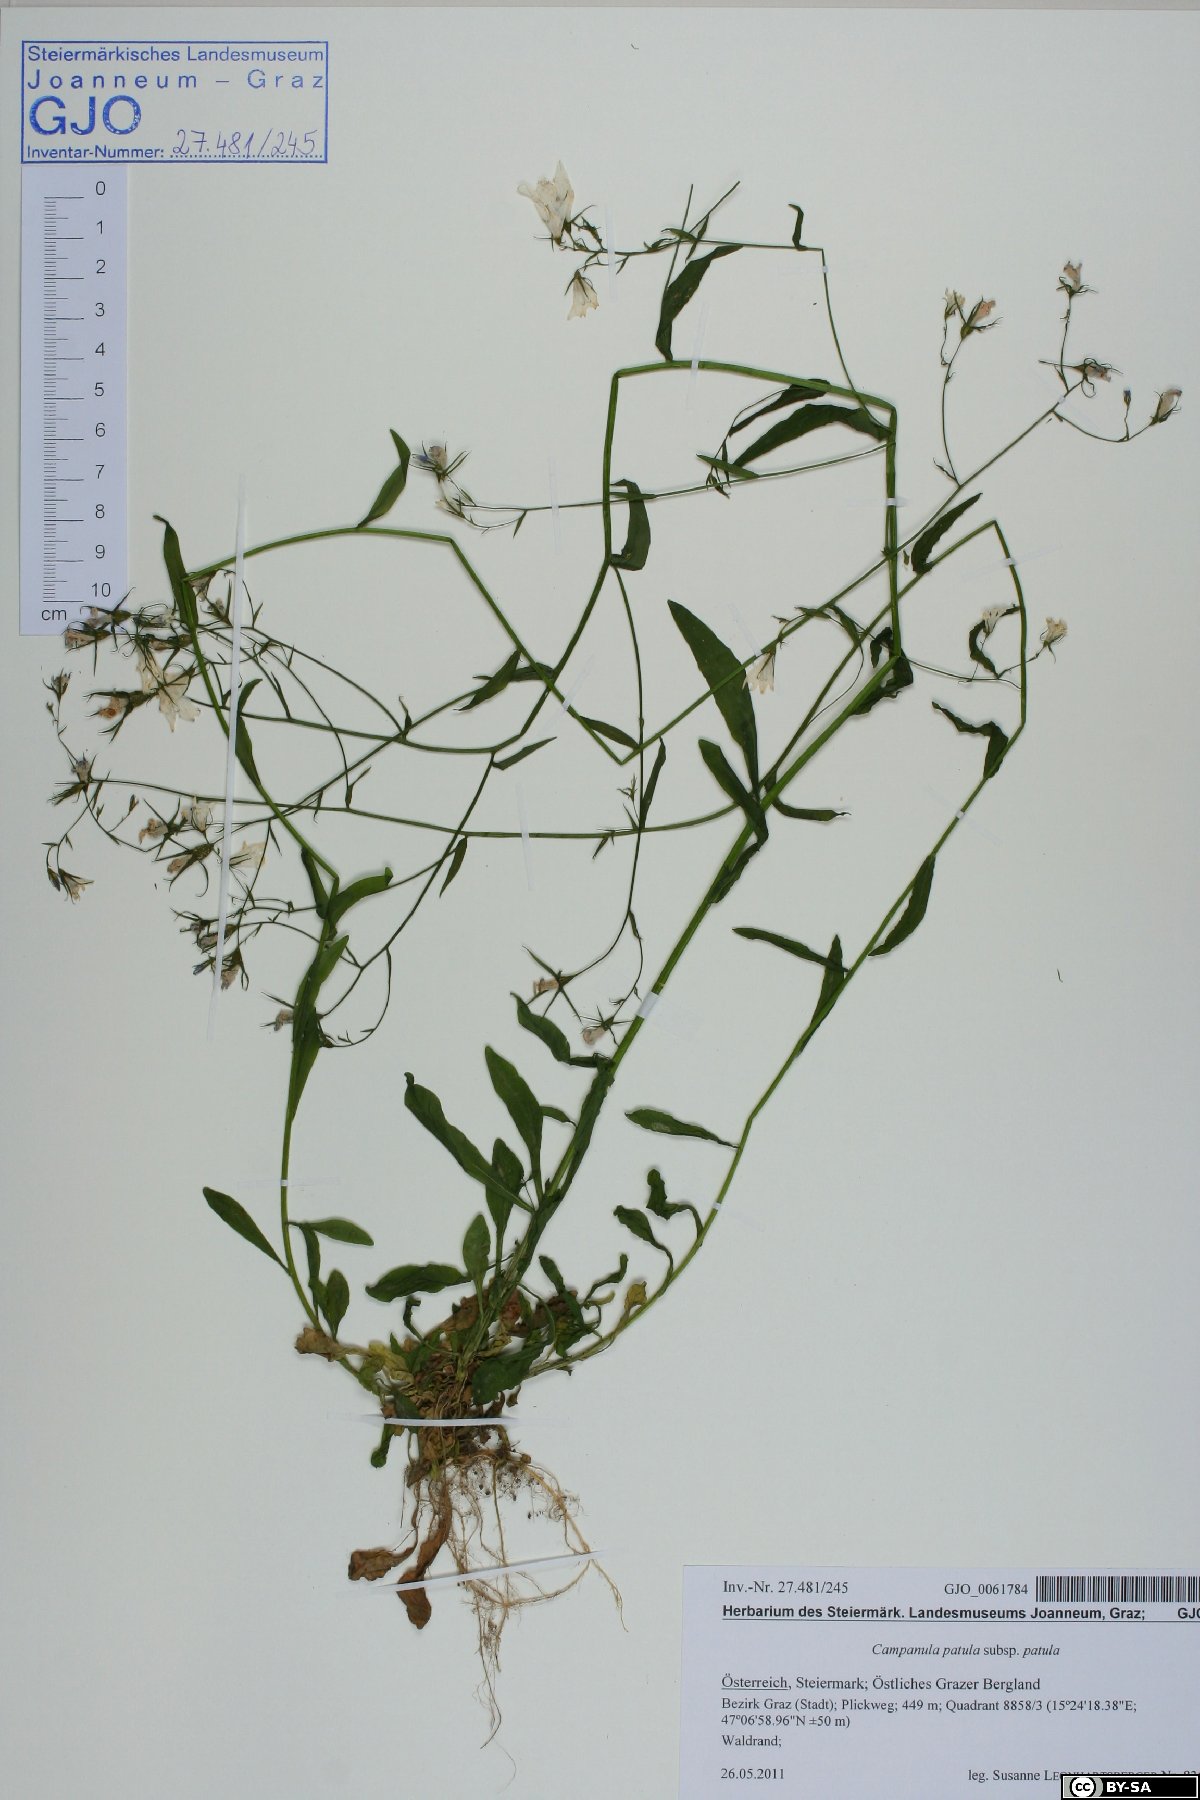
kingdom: Plantae
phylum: Tracheophyta
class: Magnoliopsida
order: Asterales
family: Campanulaceae
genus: Campanula
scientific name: Campanula patula
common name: Spreading bellflower
